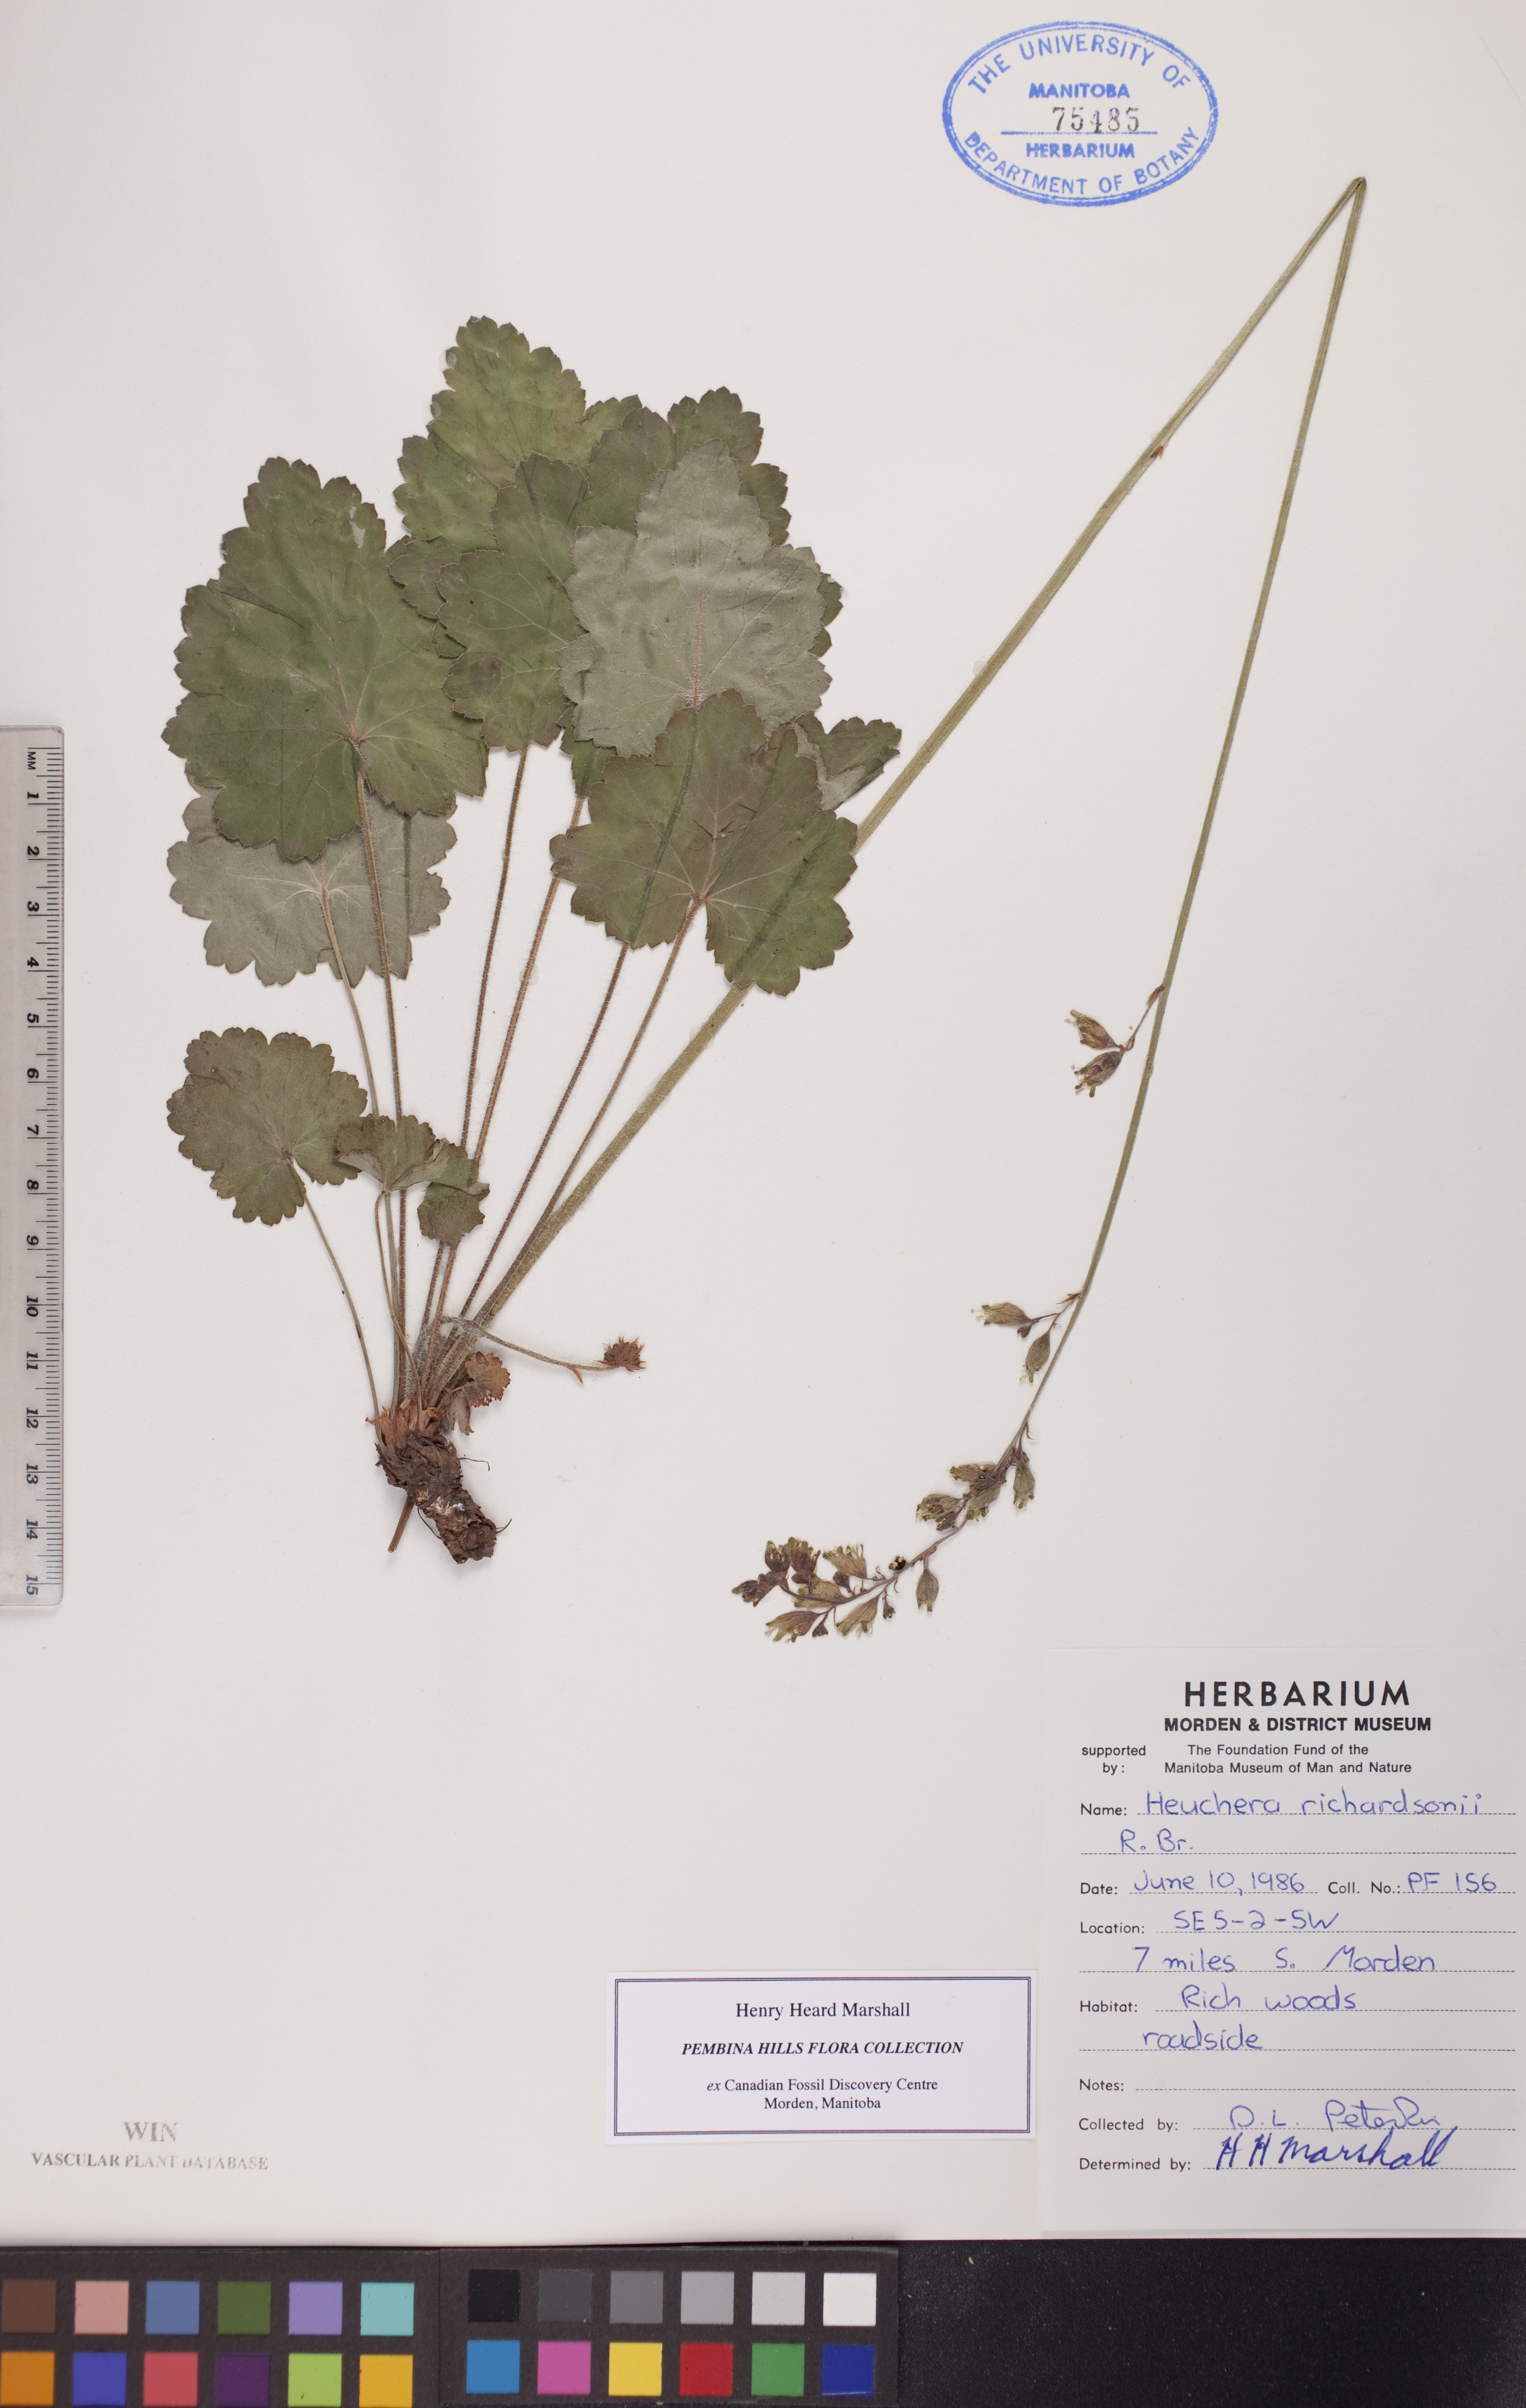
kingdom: Plantae
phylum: Tracheophyta
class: Magnoliopsida
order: Saxifragales
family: Saxifragaceae
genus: Heuchera
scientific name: Heuchera richardsonii
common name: Richardson's alumroot
